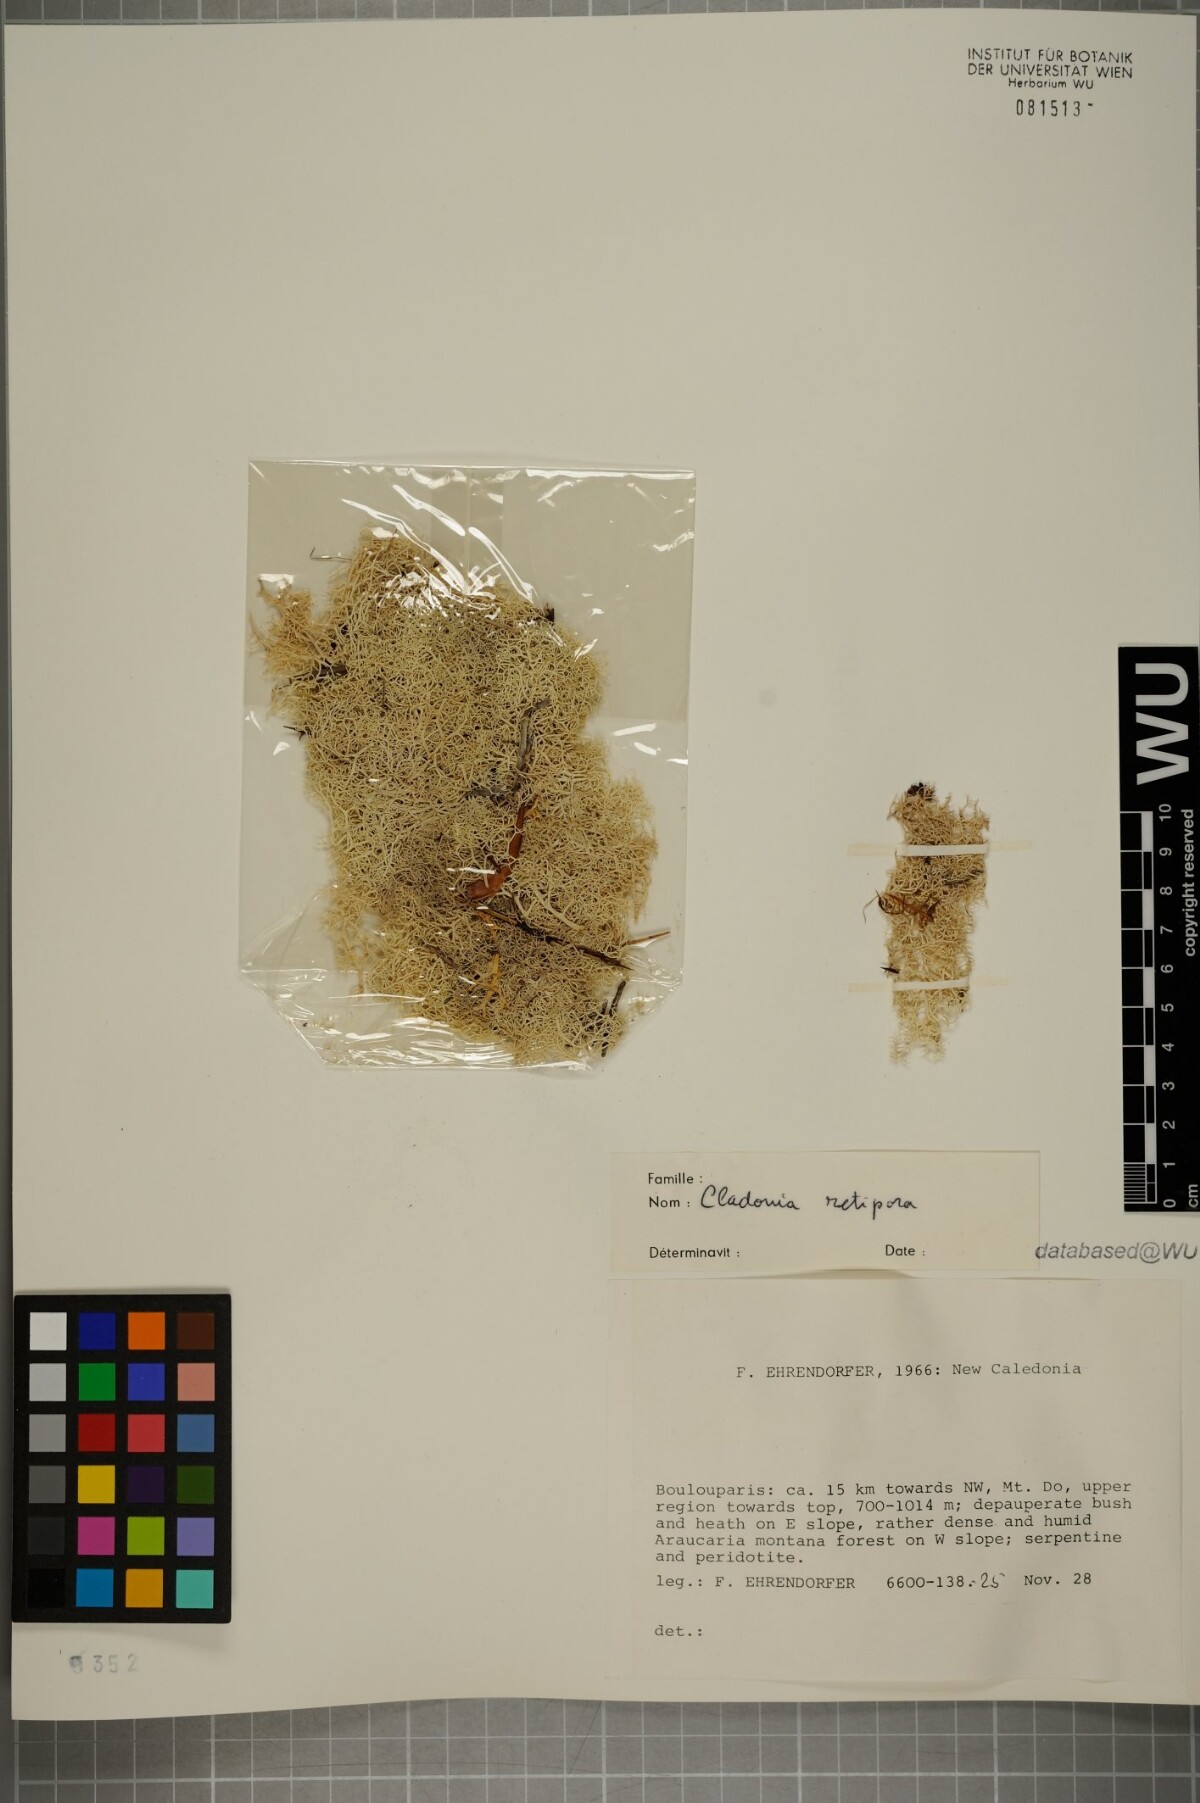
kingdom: Fungi
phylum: Ascomycota
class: Lecanoromycetes
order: Lecanorales
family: Cladoniaceae
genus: Pulchrocladia
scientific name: Pulchrocladia retipora
